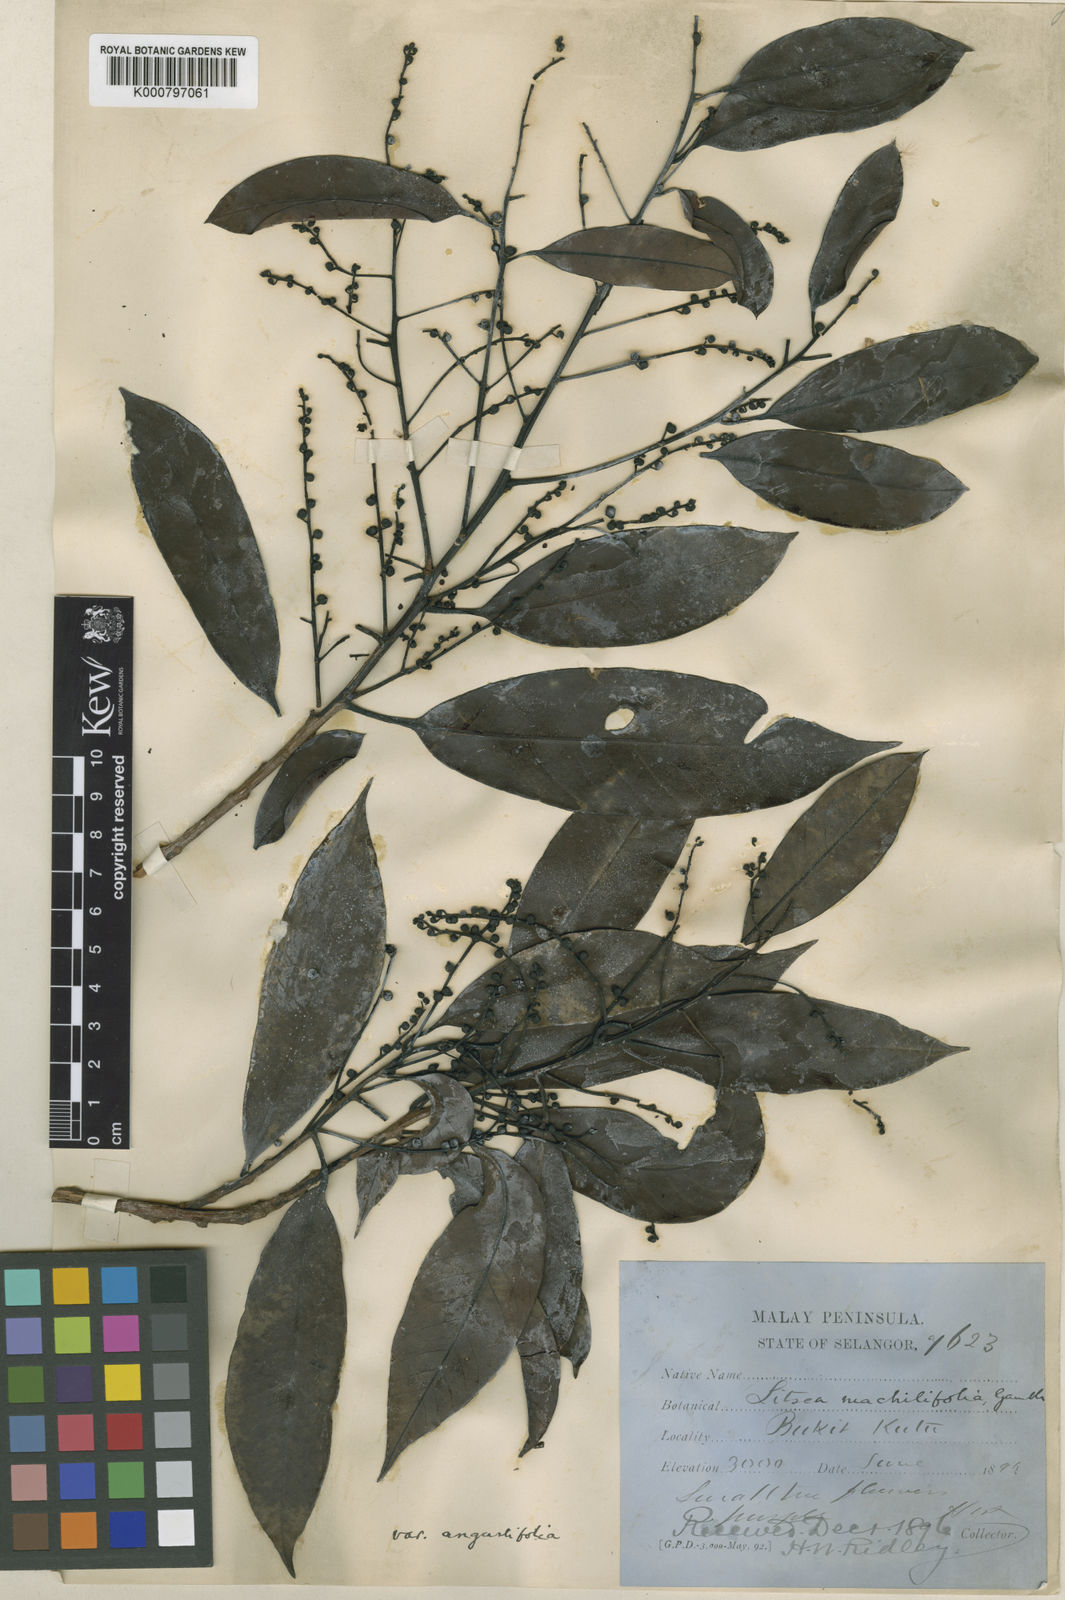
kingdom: Plantae
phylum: Tracheophyta
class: Magnoliopsida
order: Laurales
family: Lauraceae
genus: Litsea
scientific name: Litsea machilifolia
